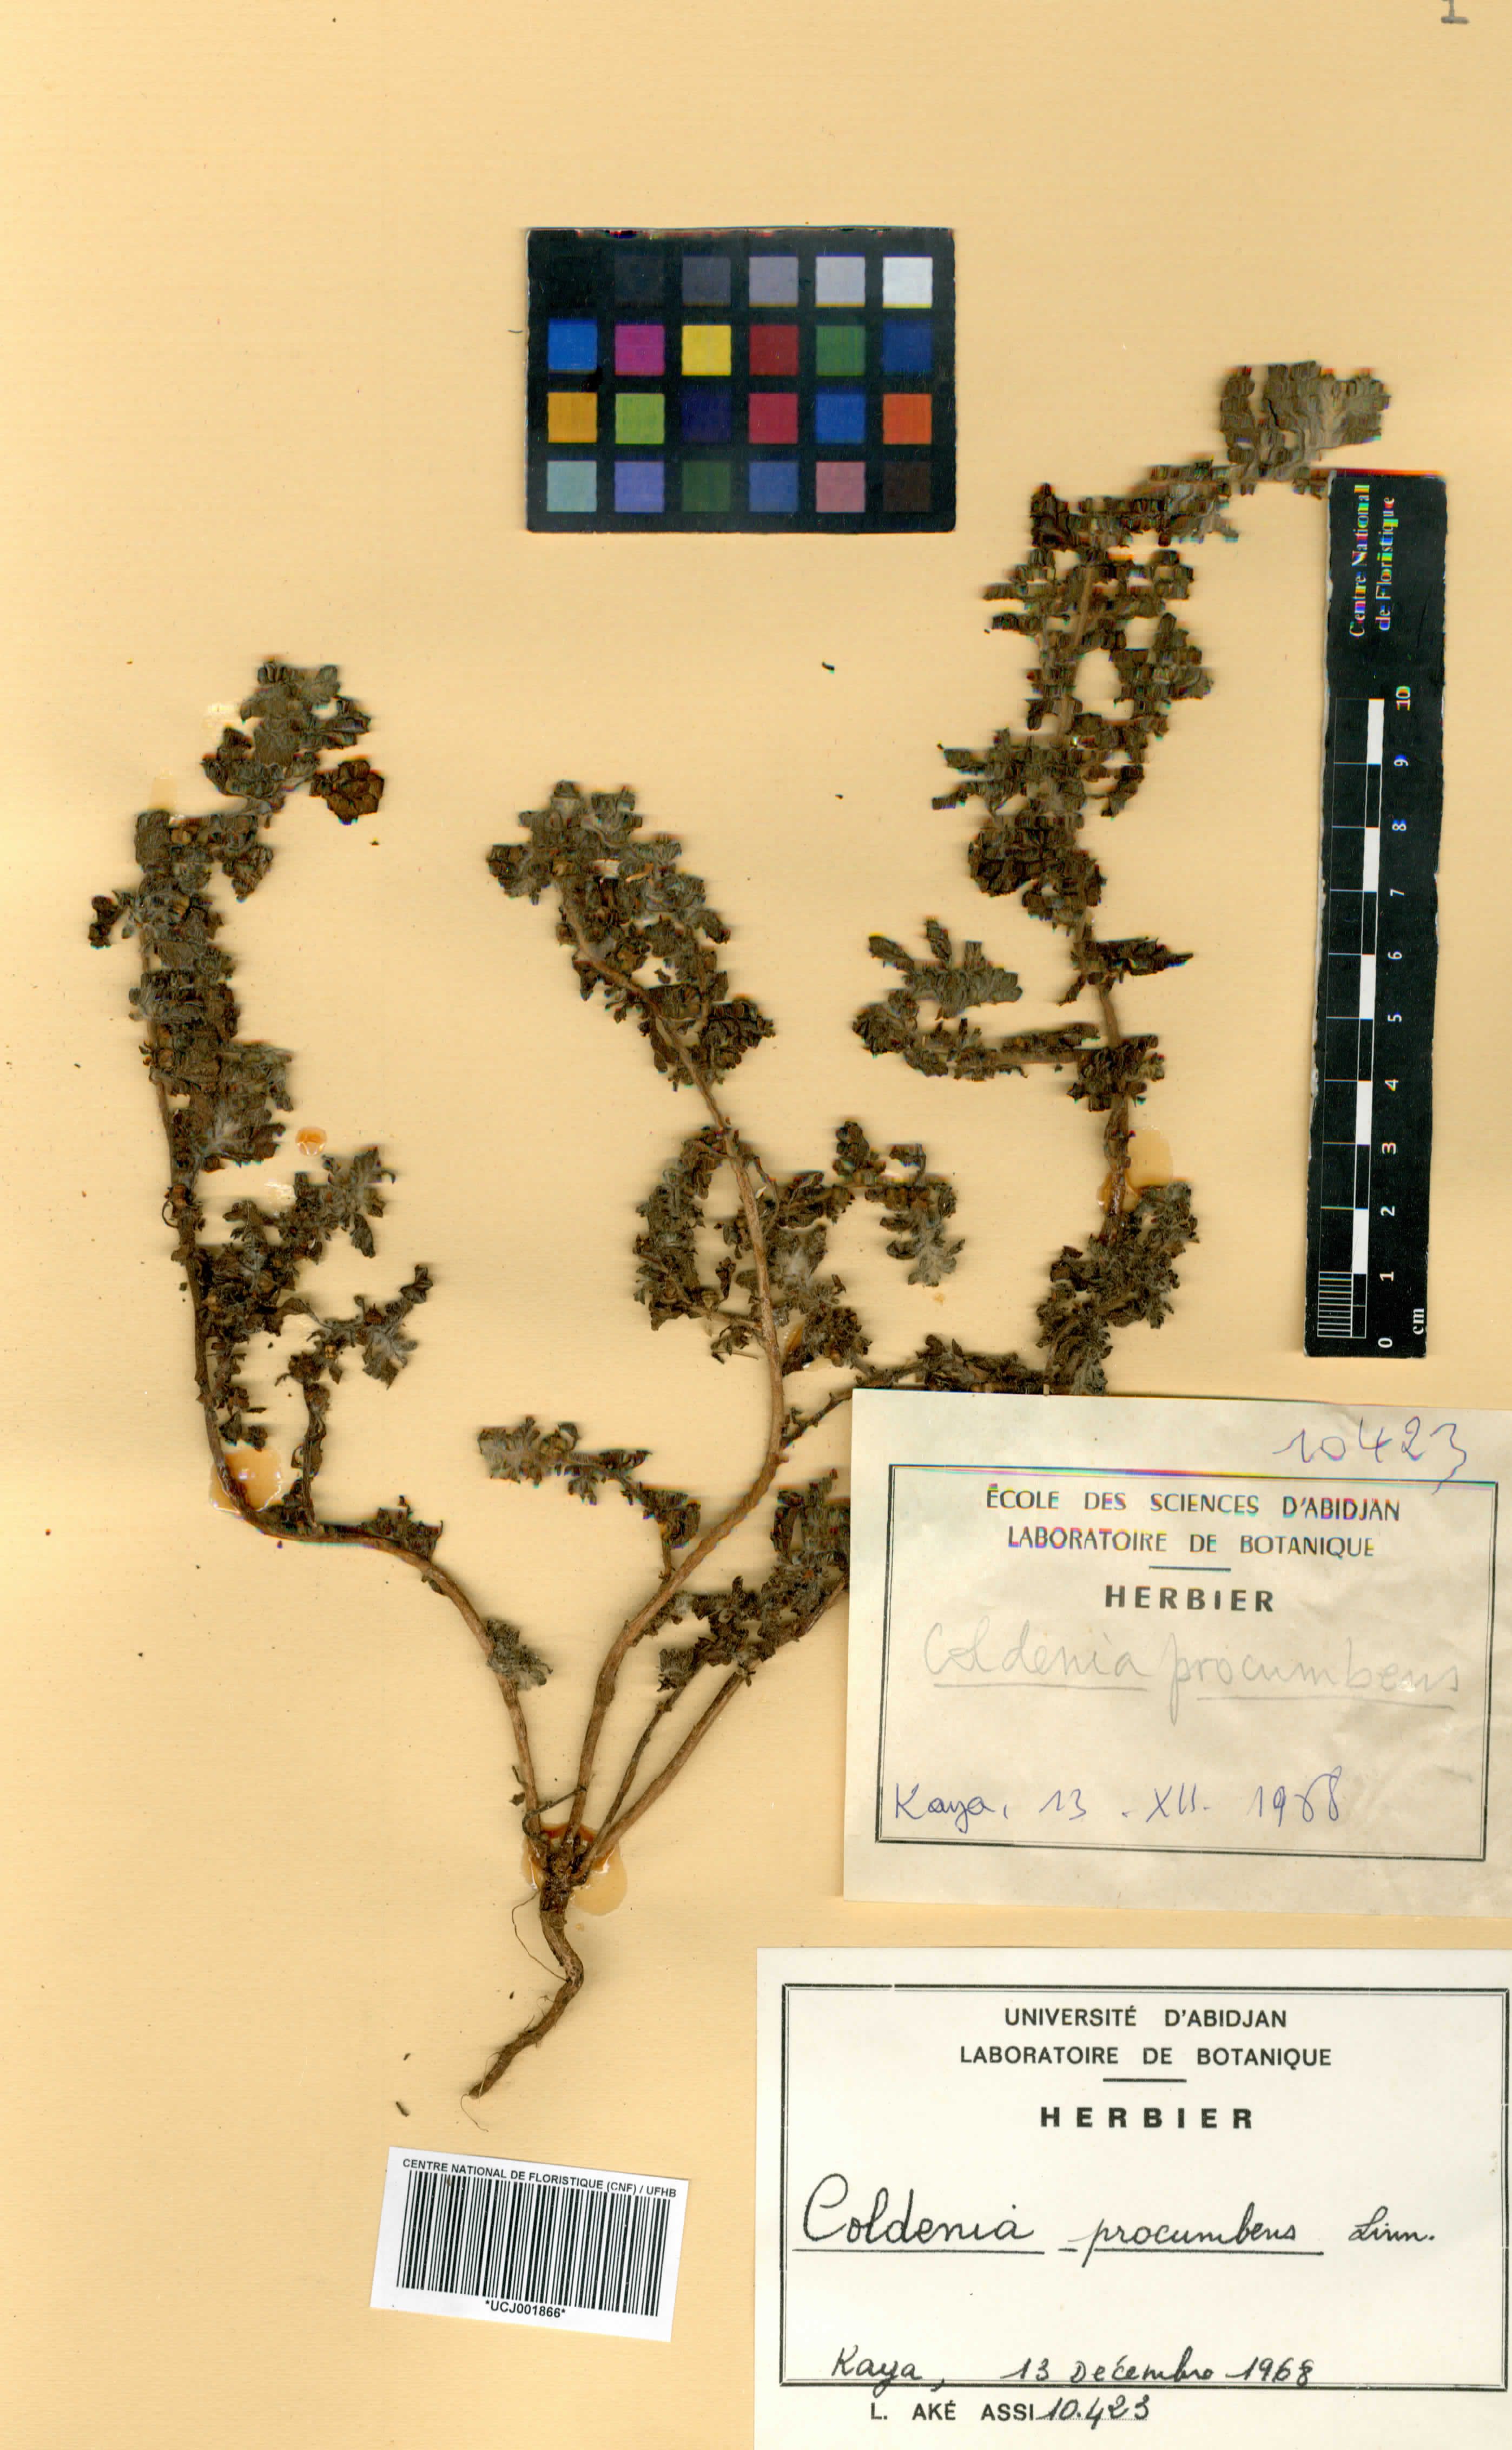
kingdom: Plantae
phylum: Tracheophyta
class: Magnoliopsida
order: Boraginales
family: Coldeniaceae
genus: Coldenia
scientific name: Coldenia procumbens
